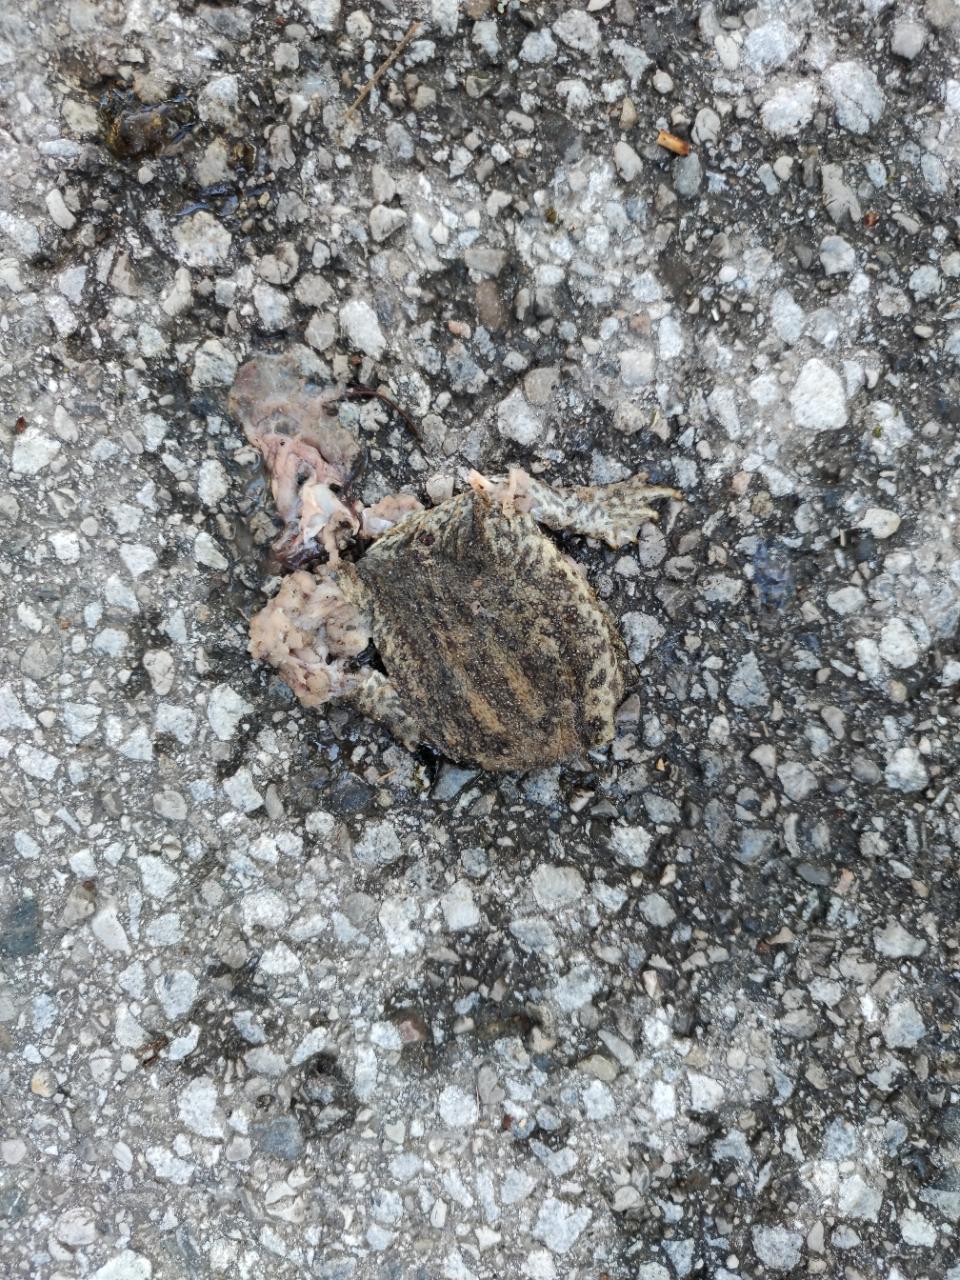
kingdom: Animalia
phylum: Chordata
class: Amphibia
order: Anura
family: Bufonidae
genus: Bufo
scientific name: Bufo bufo
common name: Common toad
